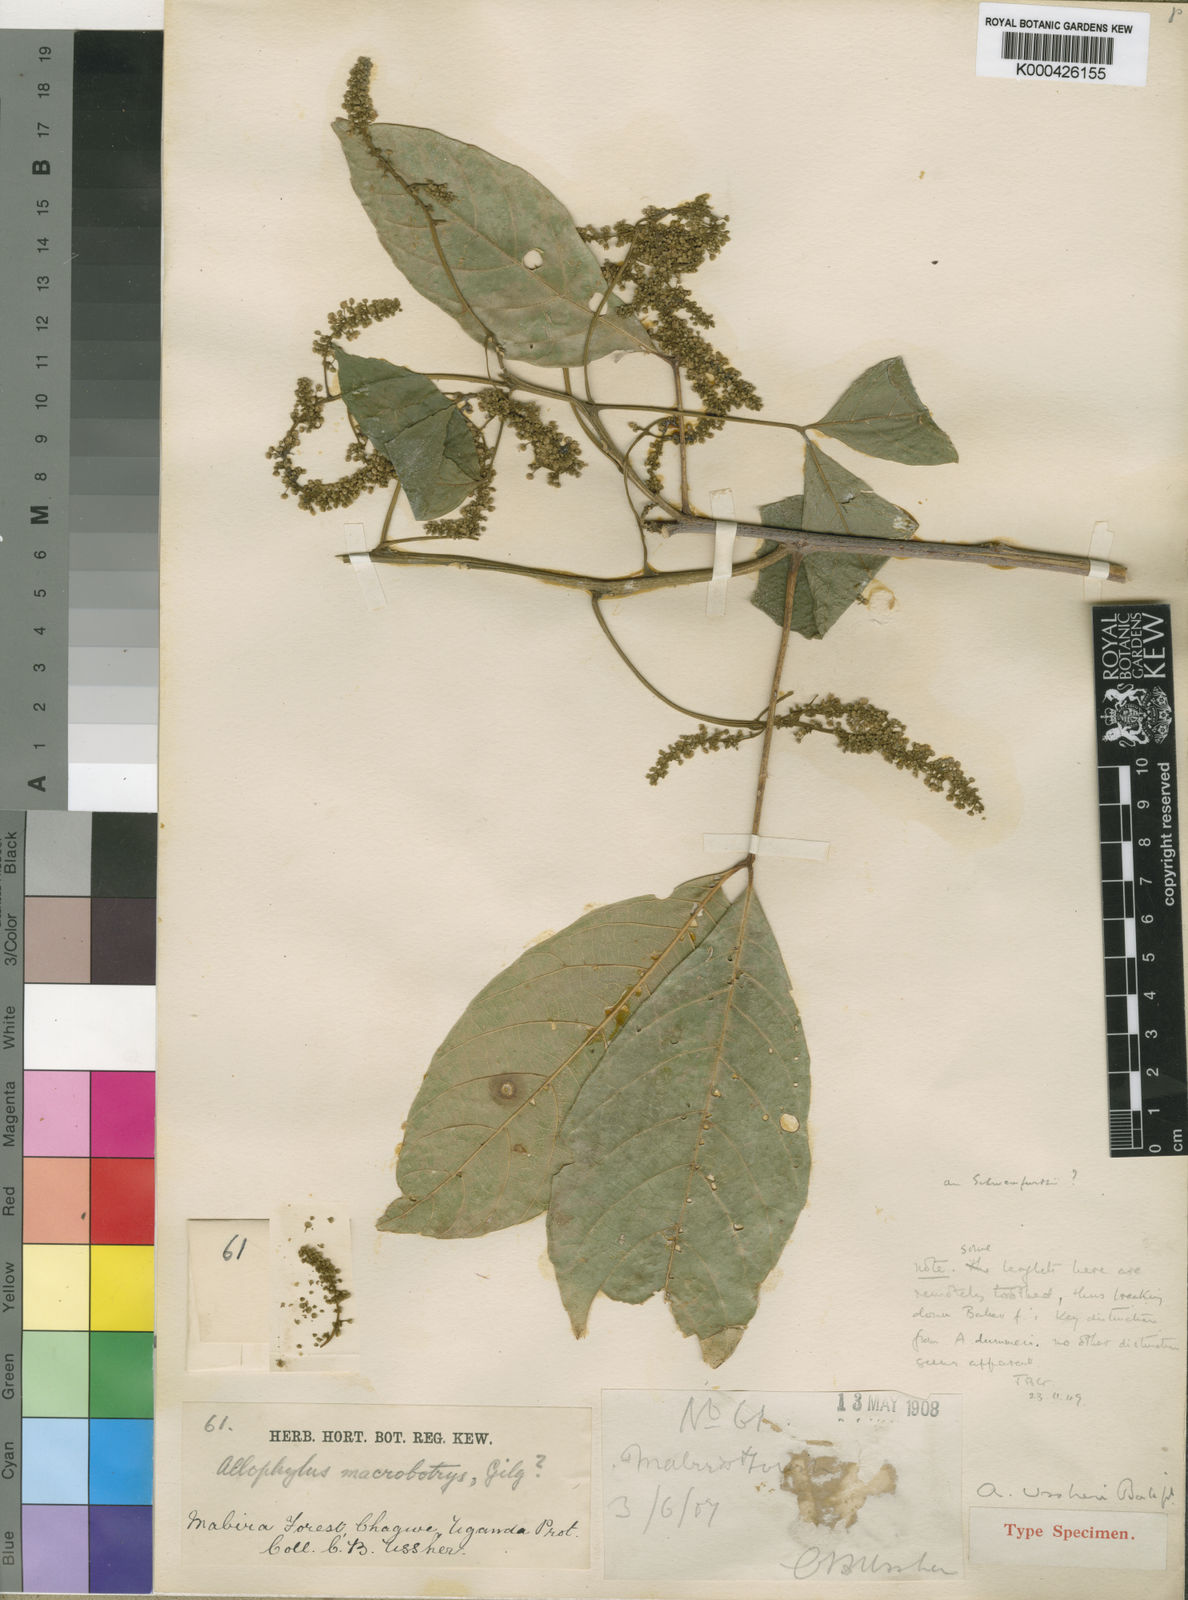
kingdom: Plantae
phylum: Tracheophyta
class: Magnoliopsida
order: Sapindales
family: Sapindaceae
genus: Allophylus
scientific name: Allophylus dummeri
